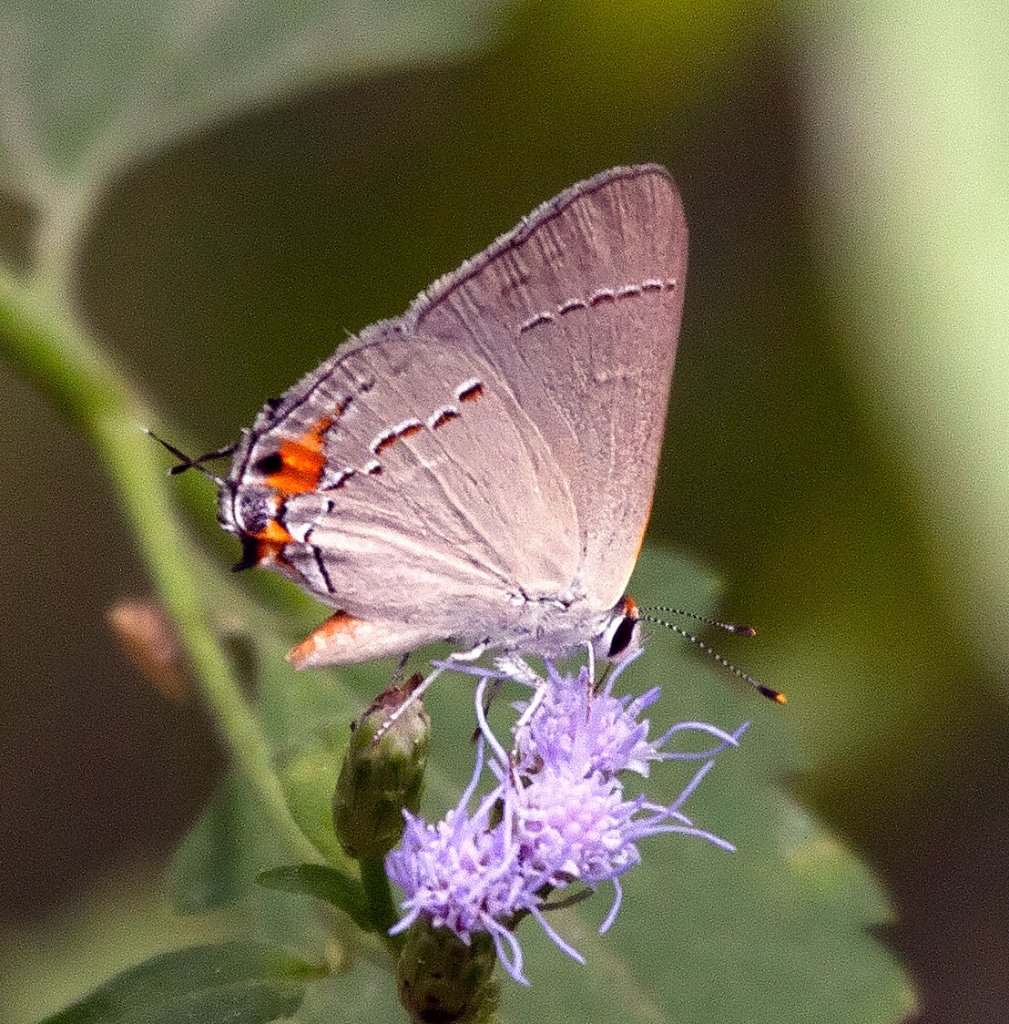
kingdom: Animalia
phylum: Arthropoda
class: Insecta
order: Lepidoptera
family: Lycaenidae
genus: Strymon
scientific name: Strymon melinus
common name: Gray Hairstreak
